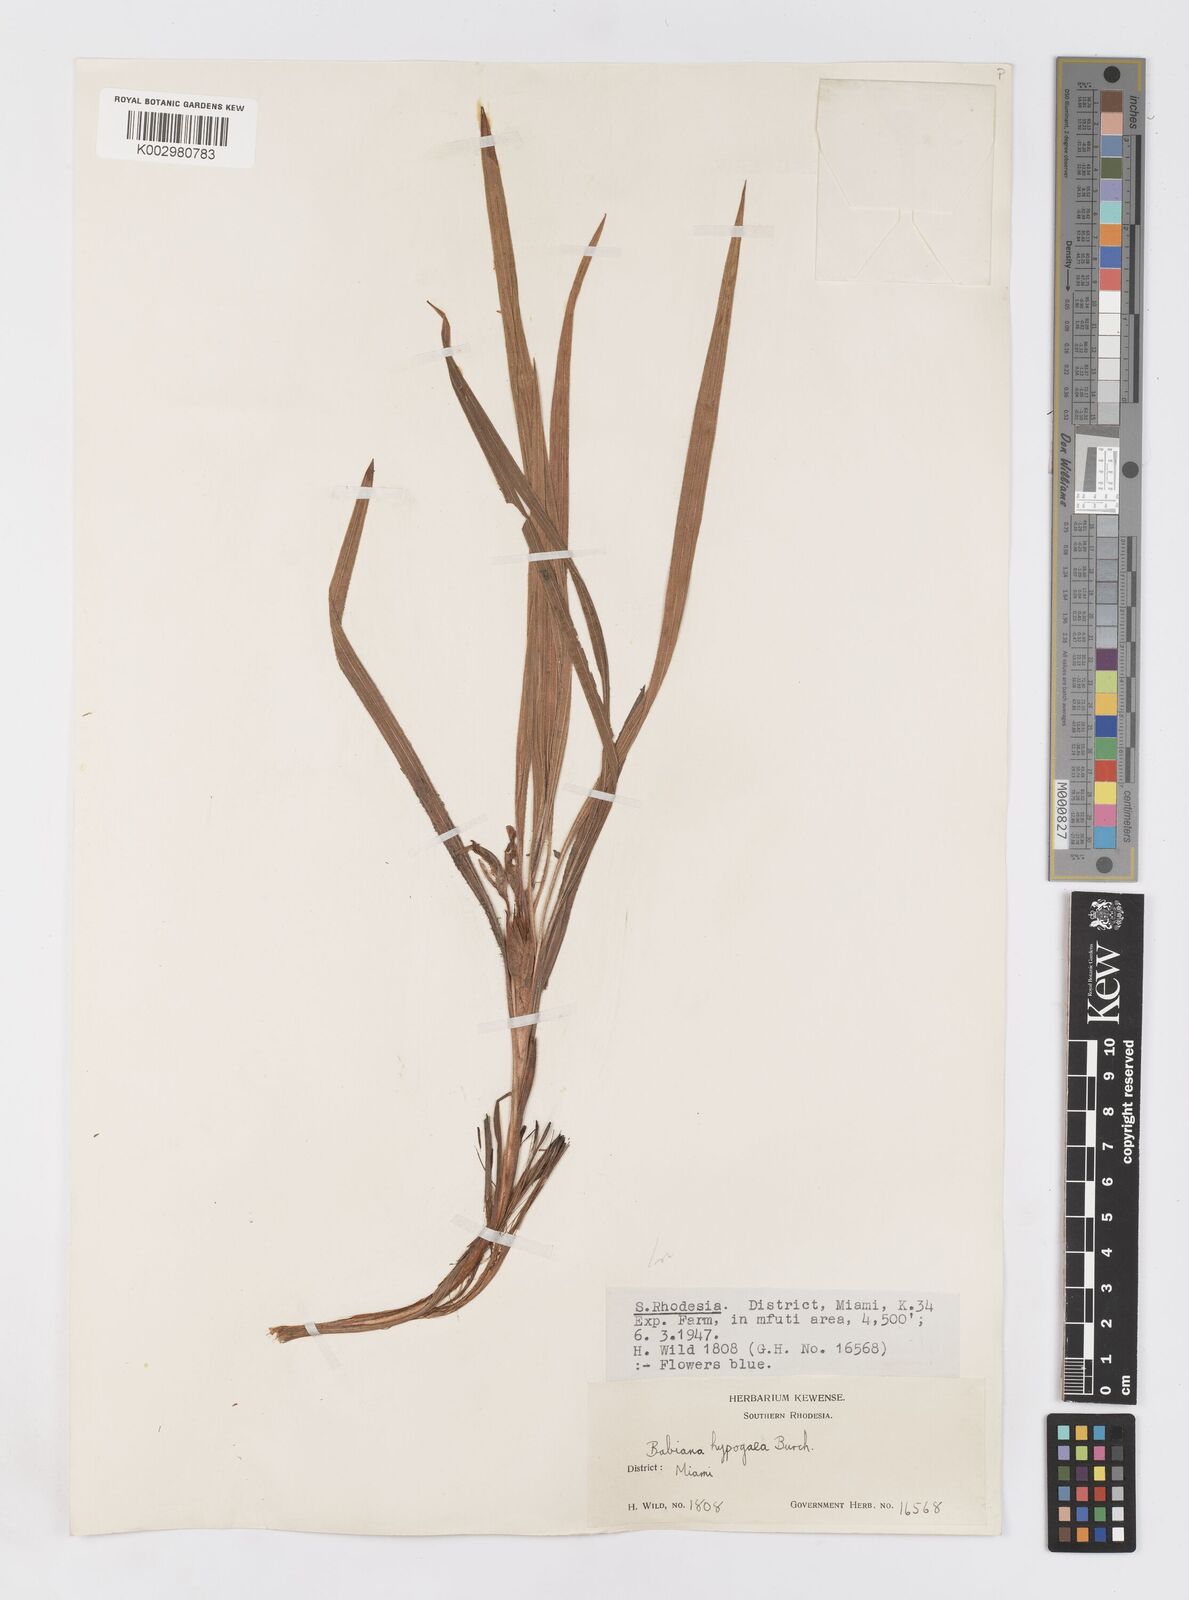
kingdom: Plantae
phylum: Tracheophyta
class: Liliopsida
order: Asparagales
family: Iridaceae
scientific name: Iridaceae
